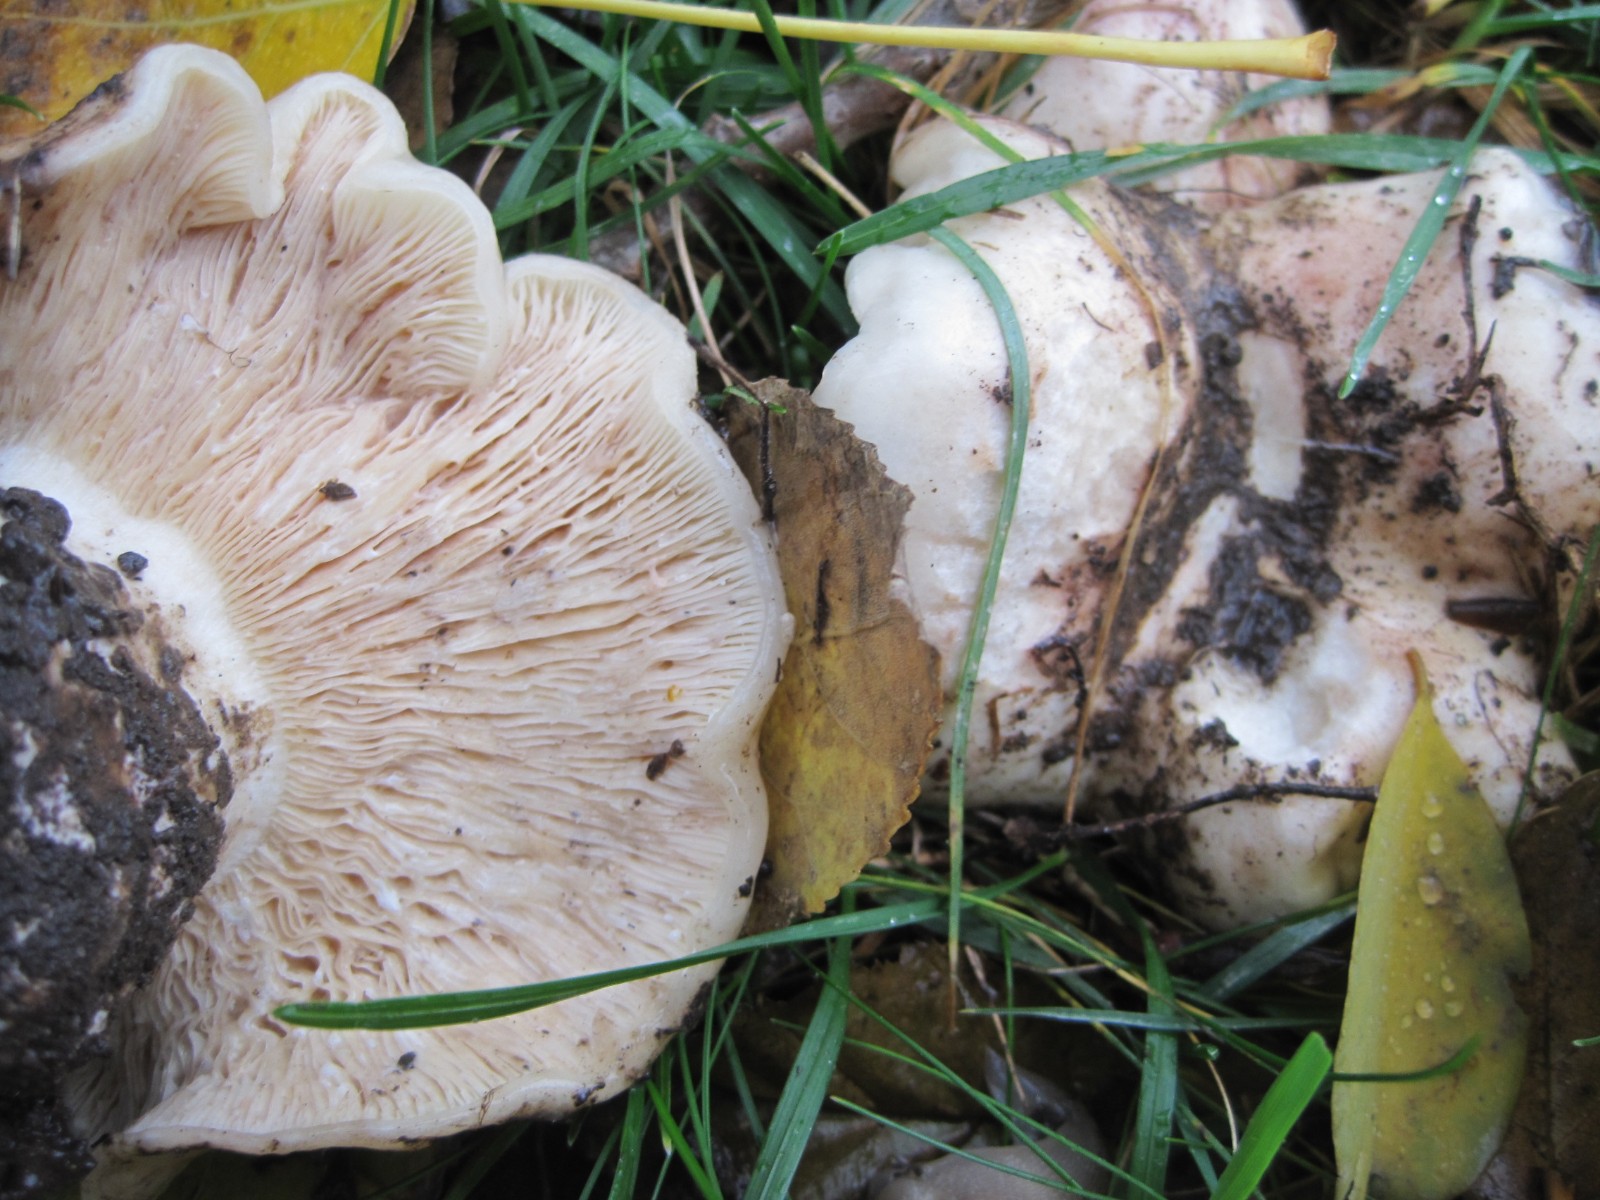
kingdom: Fungi
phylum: Basidiomycota
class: Agaricomycetes
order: Russulales
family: Russulaceae
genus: Lactarius
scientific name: Lactarius controversus
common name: rosabladet mælkehat
